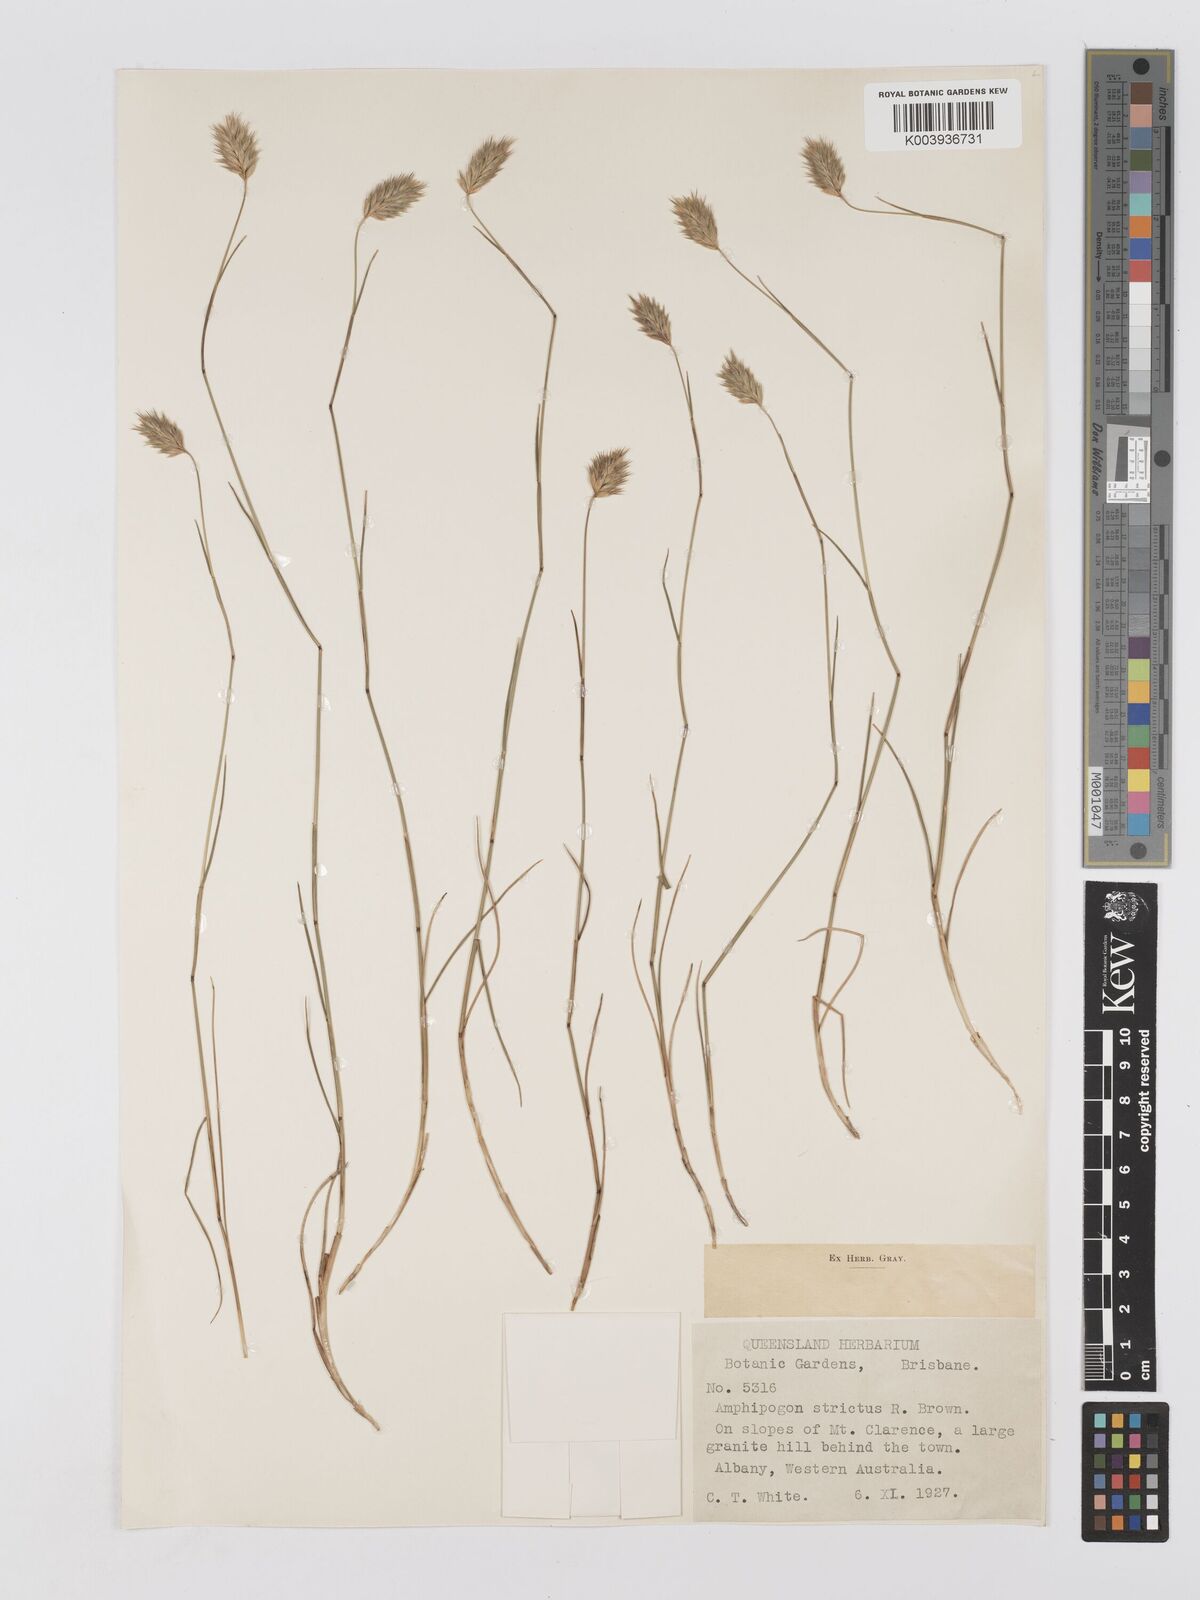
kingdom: Plantae
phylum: Tracheophyta
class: Liliopsida
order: Poales
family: Poaceae
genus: Amphipogon
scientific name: Amphipogon strictus
